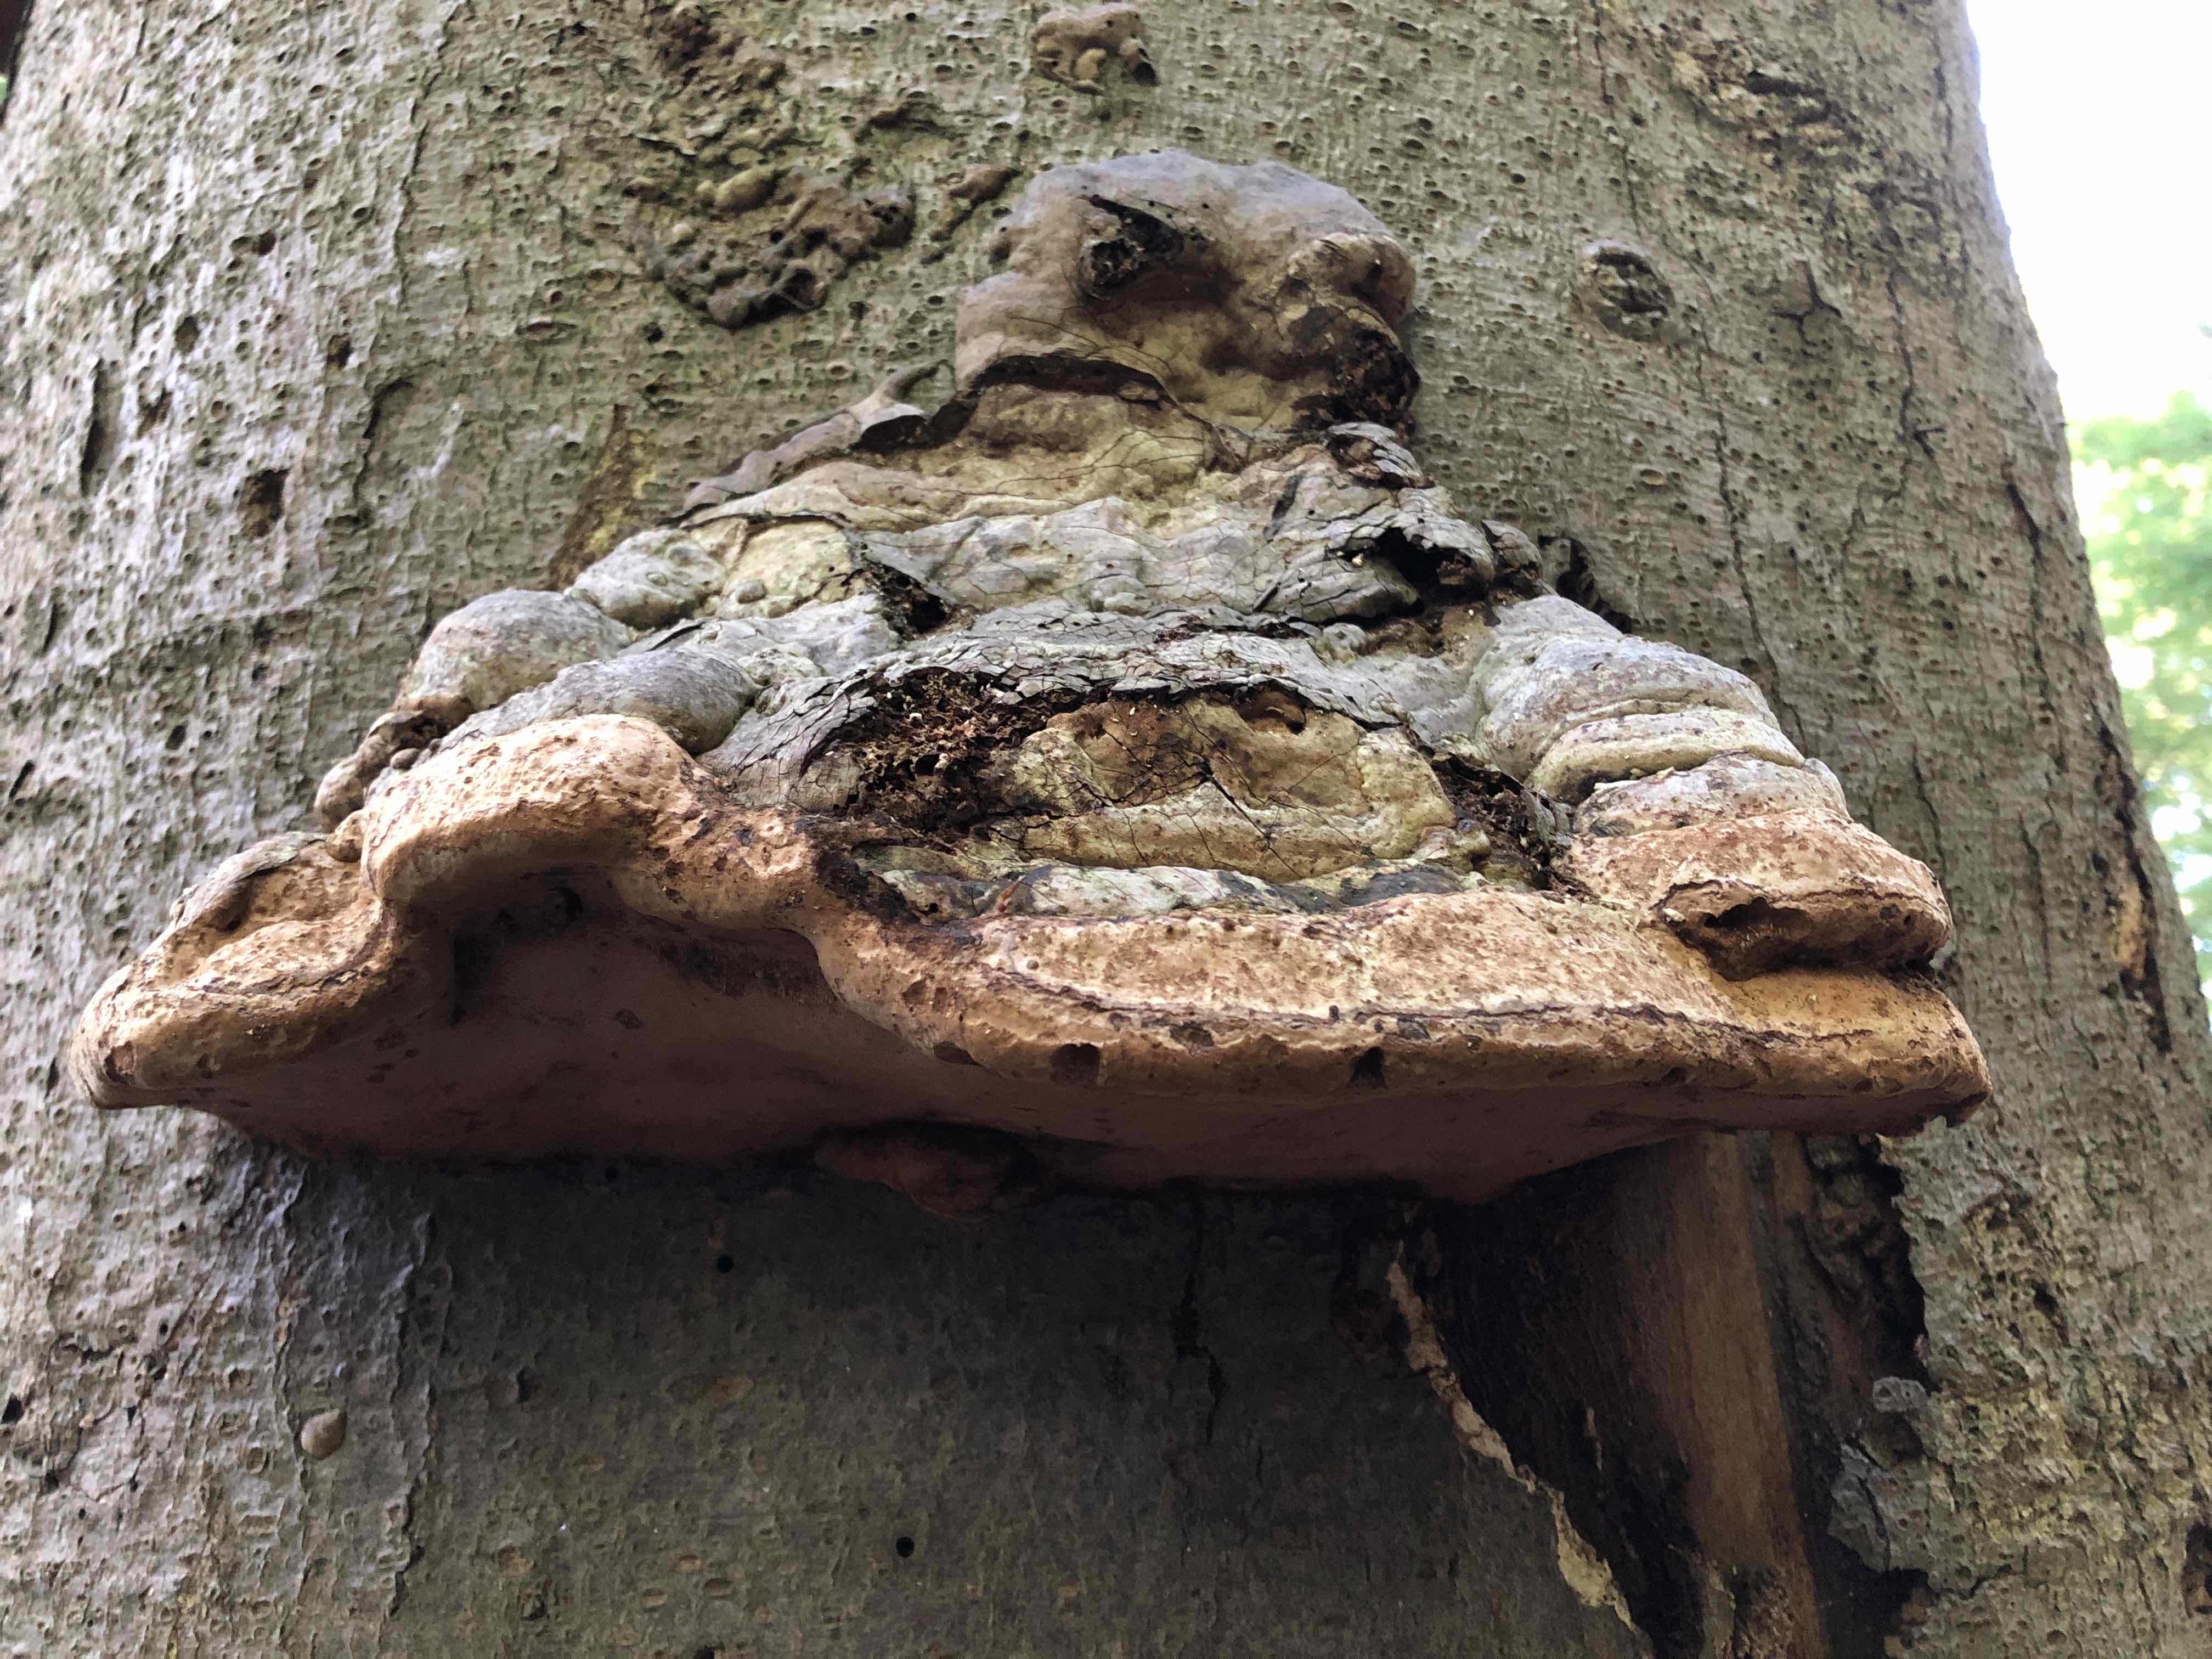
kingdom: Fungi
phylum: Basidiomycota
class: Agaricomycetes
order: Polyporales
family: Polyporaceae
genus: Fomes
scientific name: Fomes fomentarius
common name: tøndersvamp
